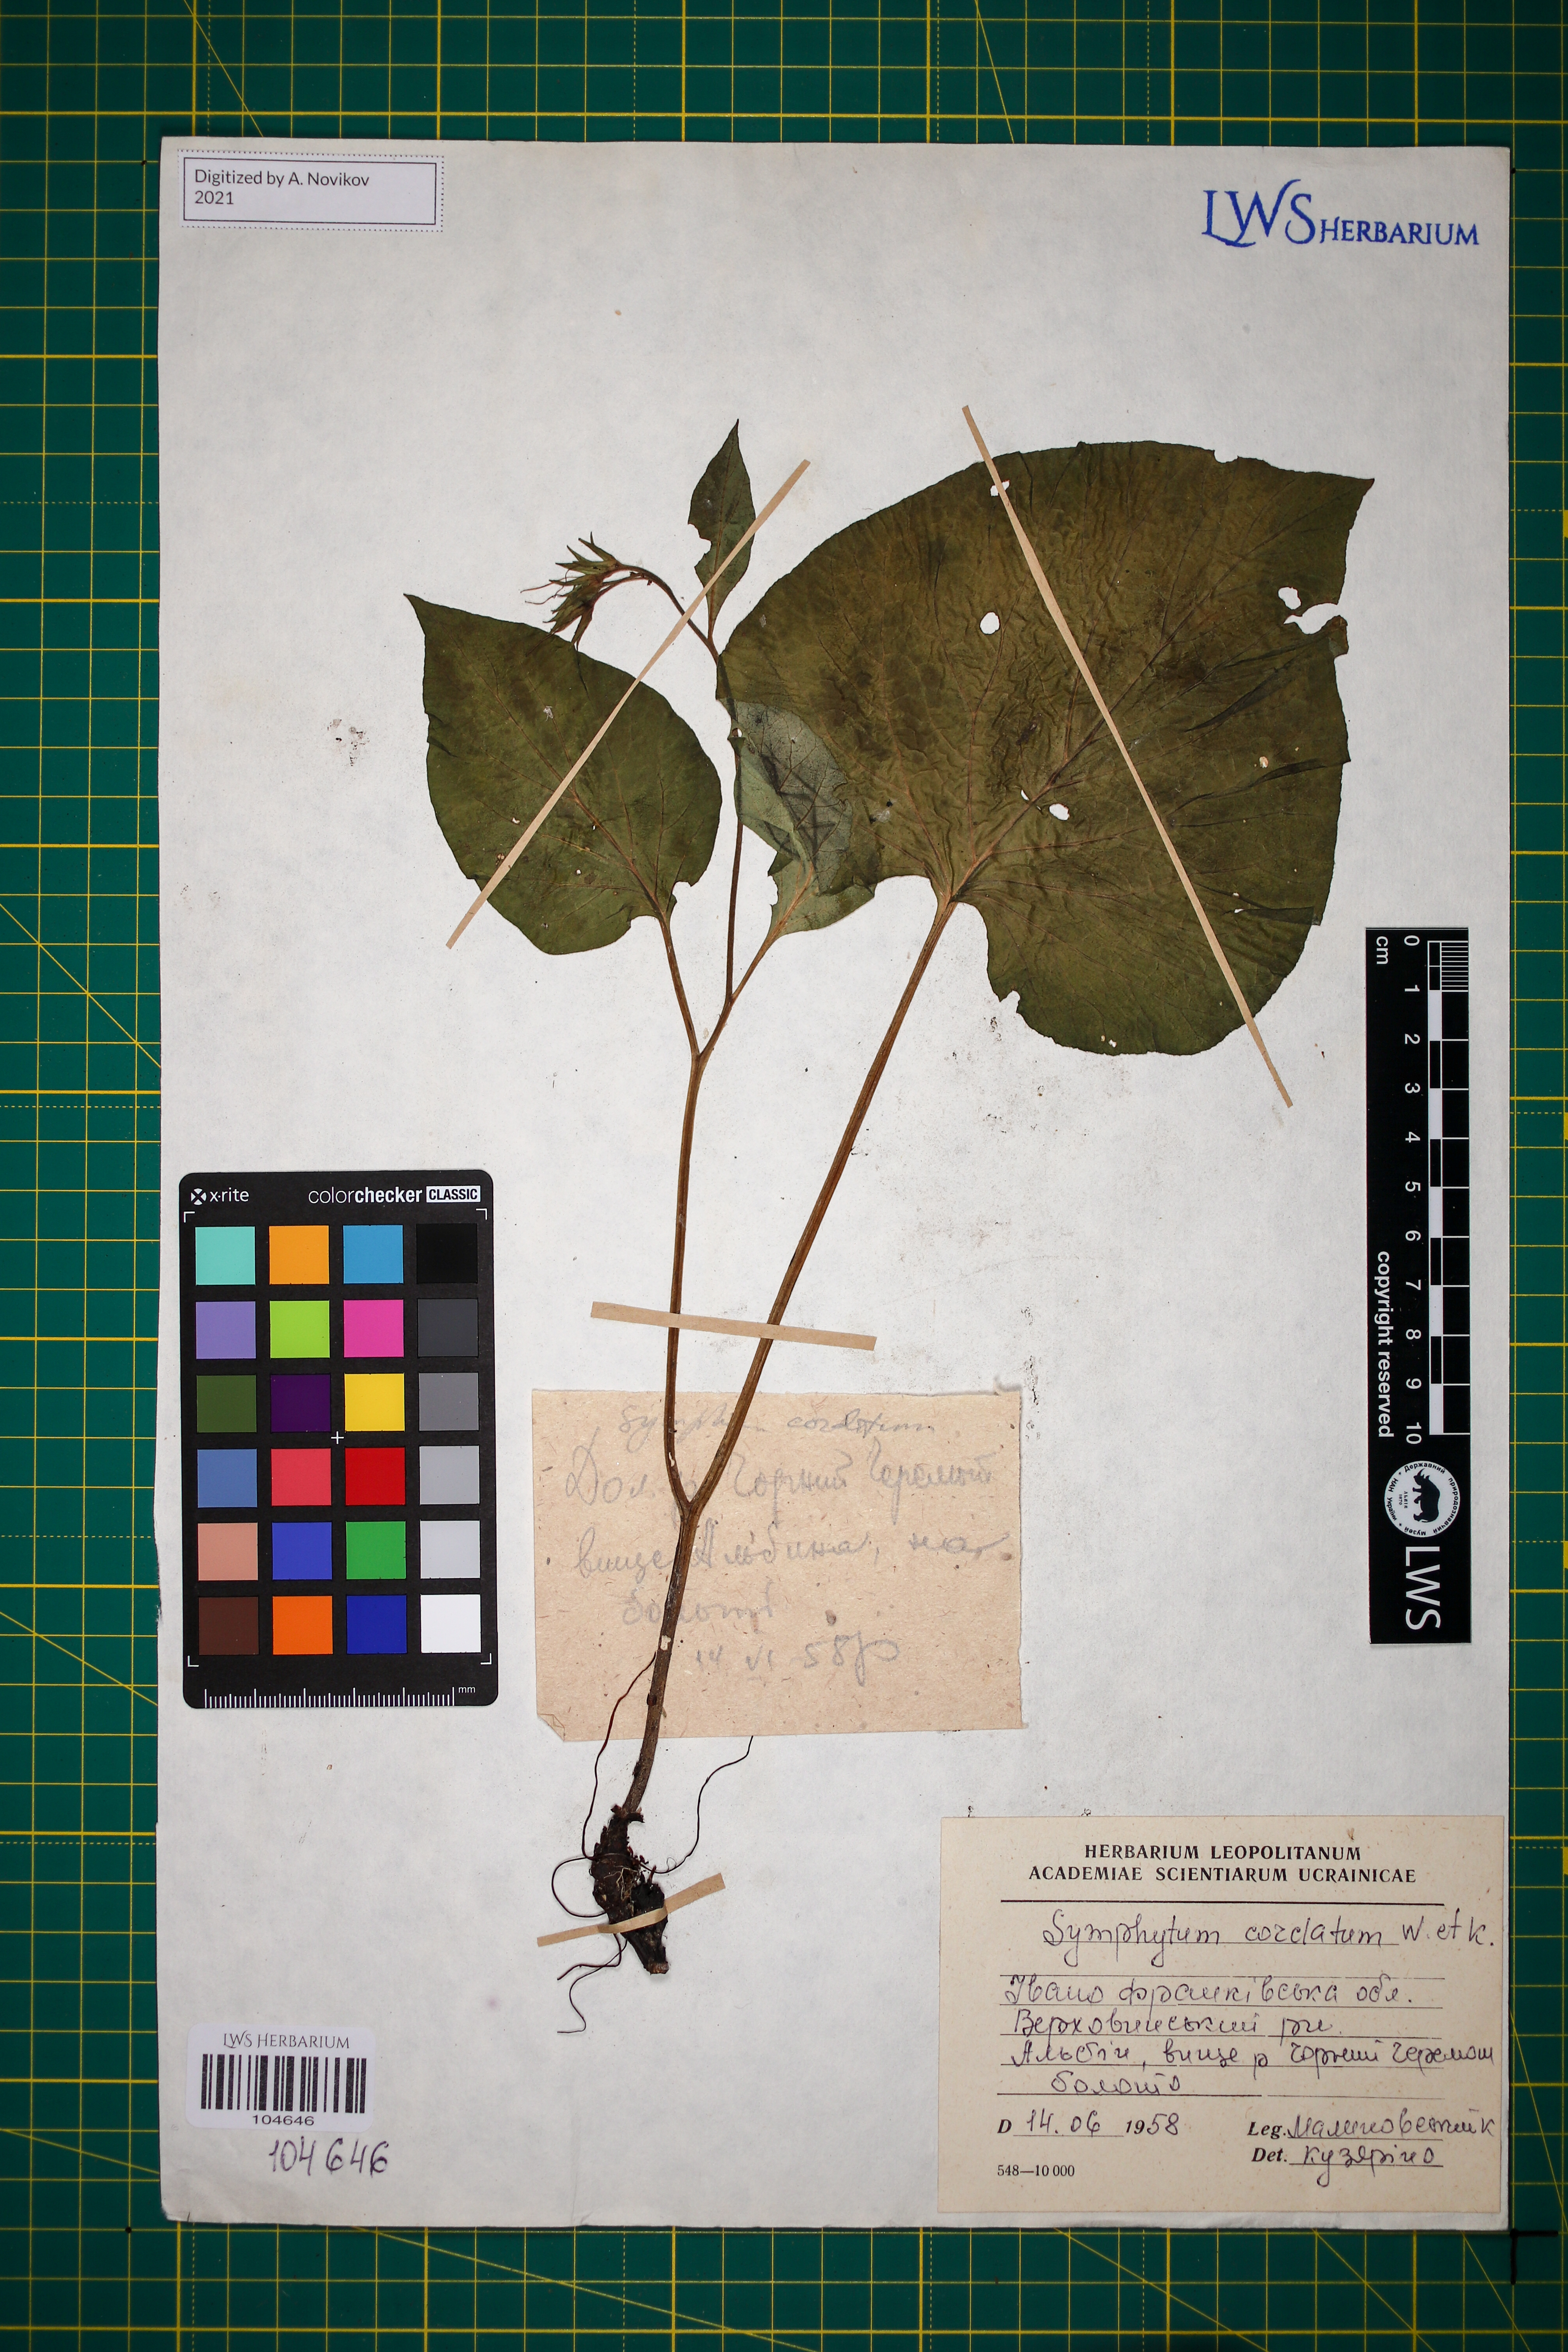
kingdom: Plantae
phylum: Tracheophyta
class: Magnoliopsida
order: Boraginales
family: Boraginaceae
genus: Symphytum
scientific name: Symphytum cordatum
